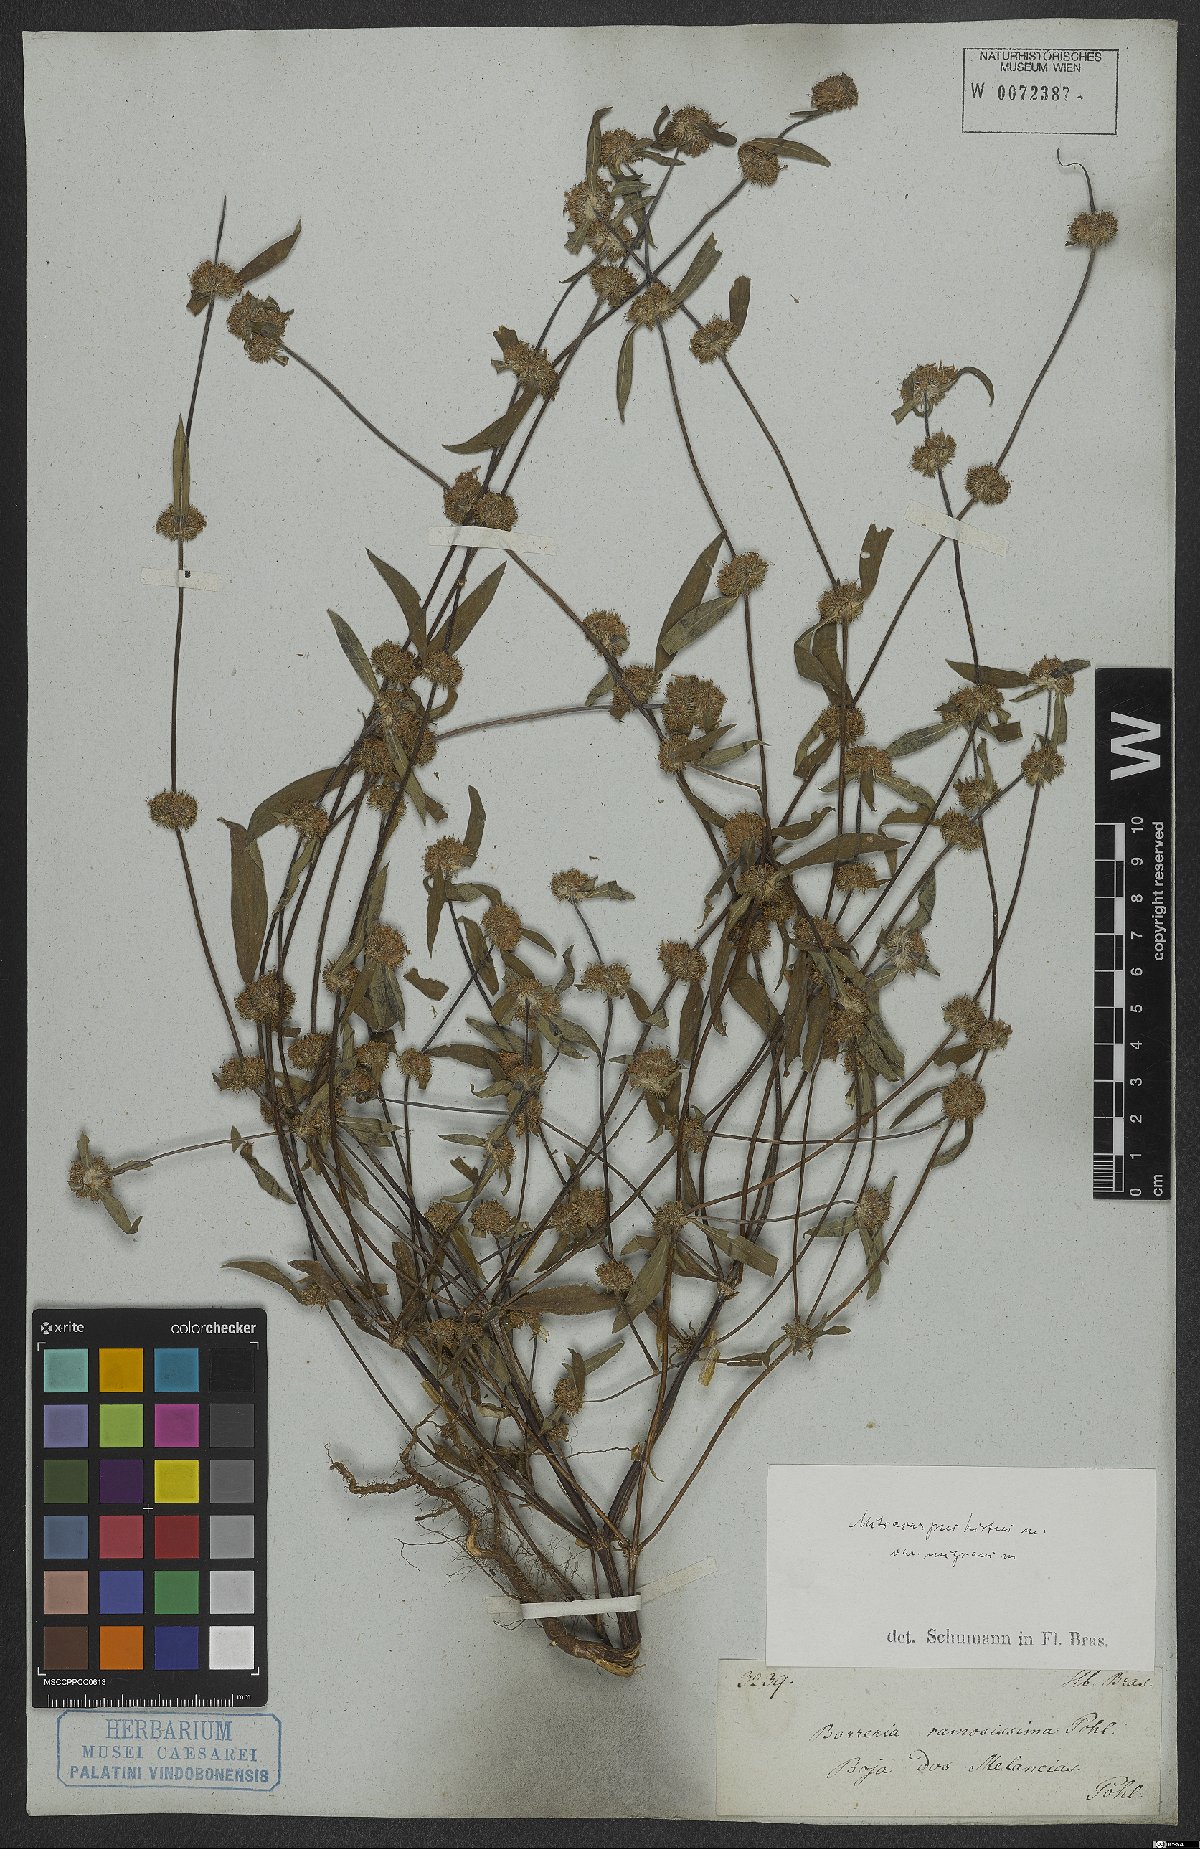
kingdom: Plantae
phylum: Tracheophyta
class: Magnoliopsida
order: Gentianales
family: Rubiaceae
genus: Mitracarpus
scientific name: Mitracarpus hirtus
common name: Tropical girdlepod
